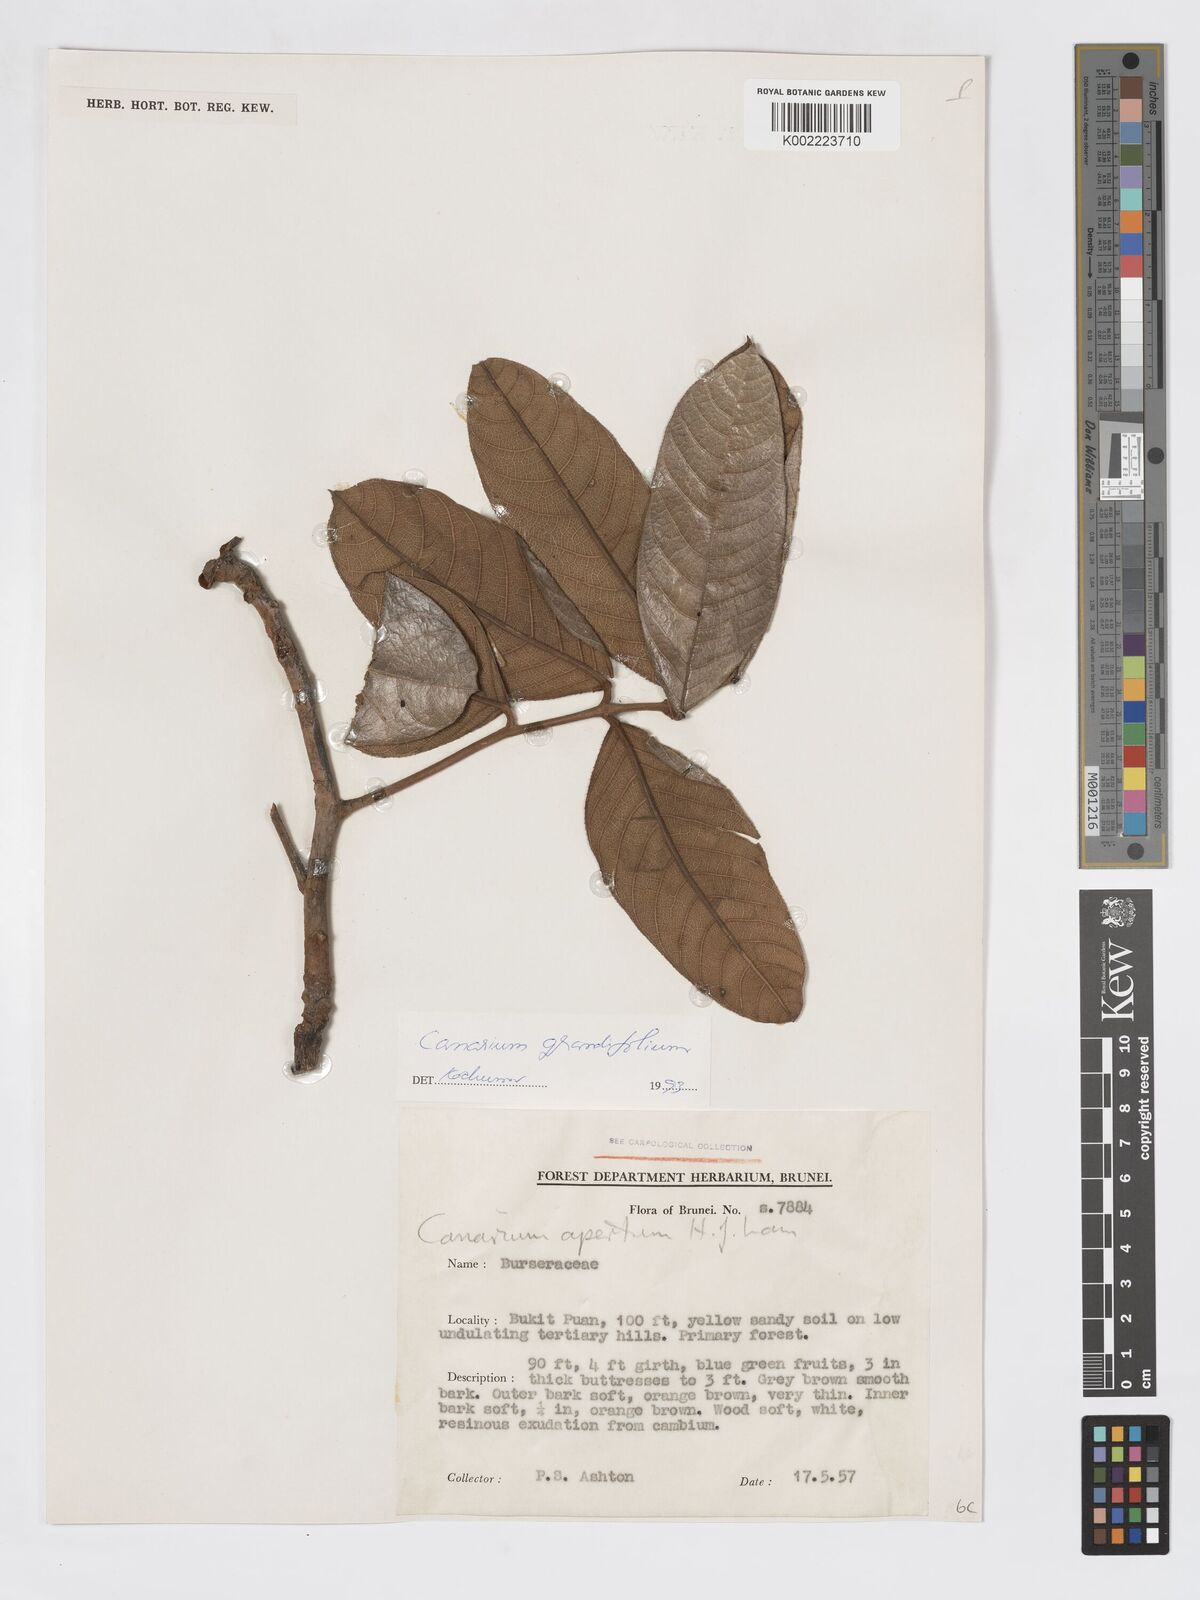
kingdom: Plantae
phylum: Tracheophyta
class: Magnoliopsida
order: Sapindales
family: Burseraceae
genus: Canarium
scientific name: Canarium grandifolium
